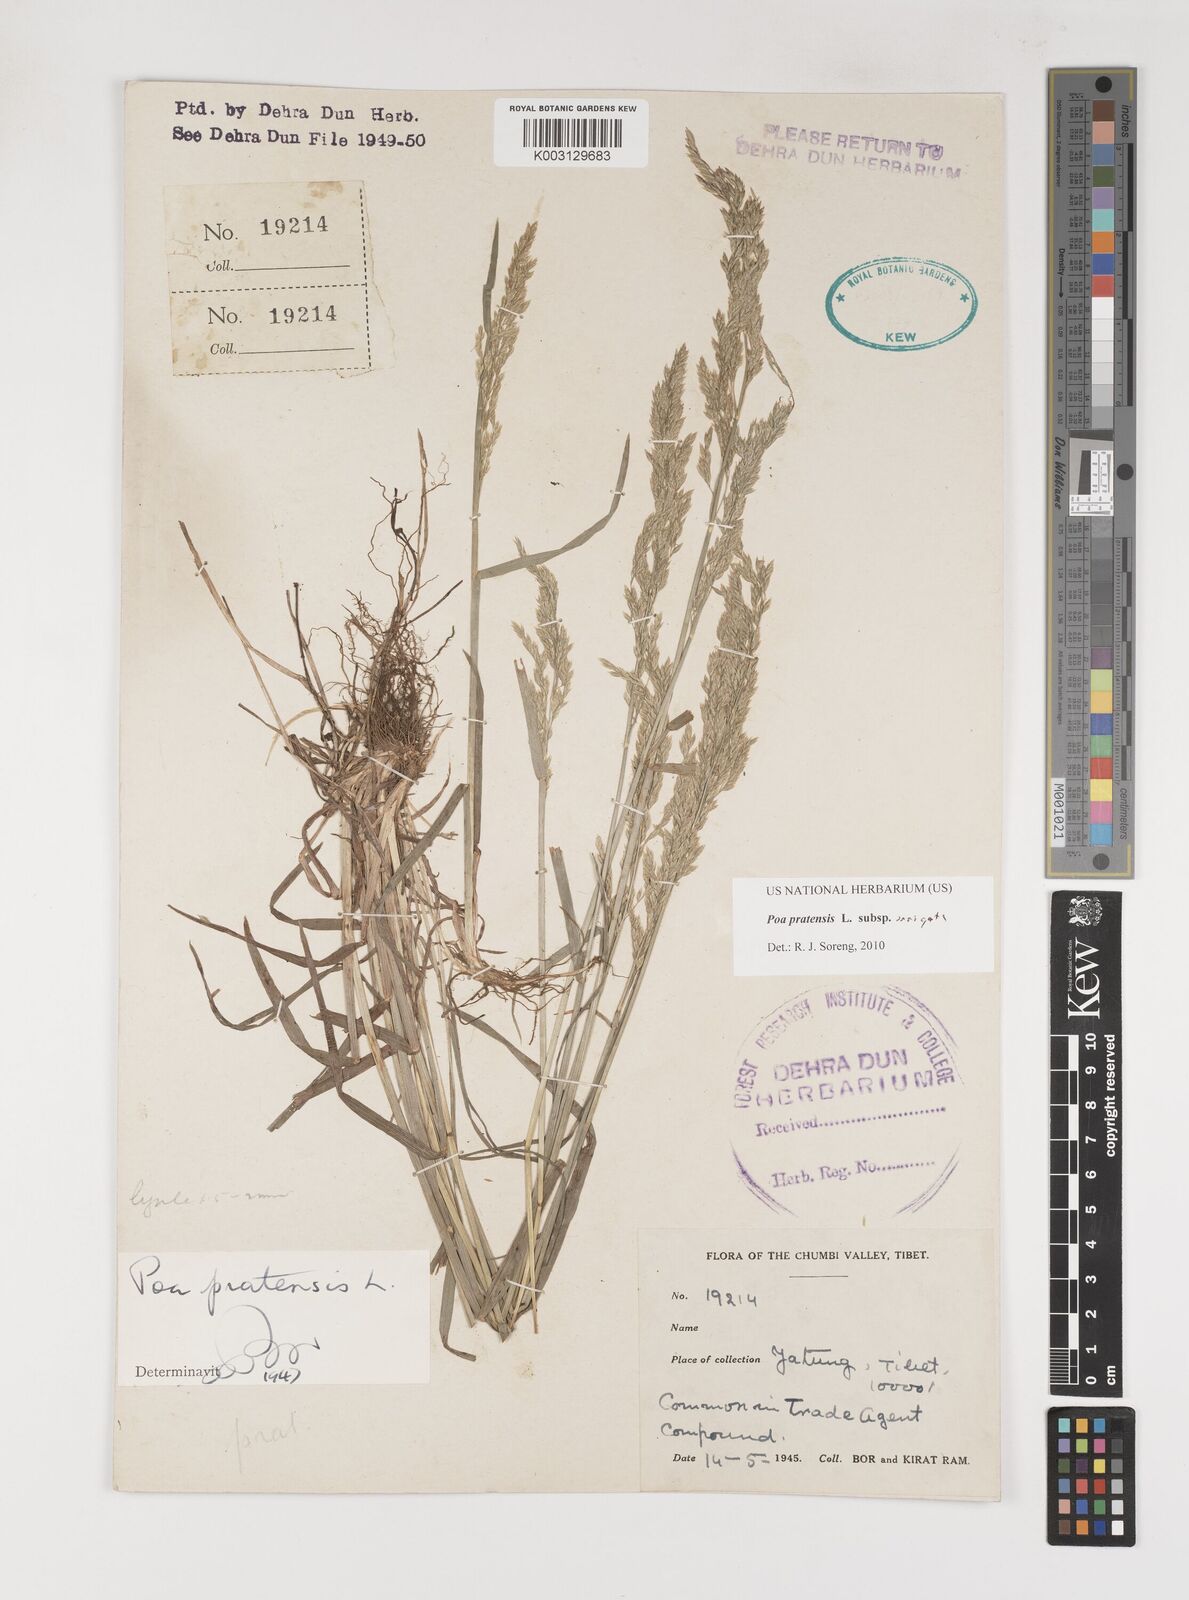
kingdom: Plantae
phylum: Tracheophyta
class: Liliopsida
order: Poales
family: Poaceae
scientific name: Poaceae
